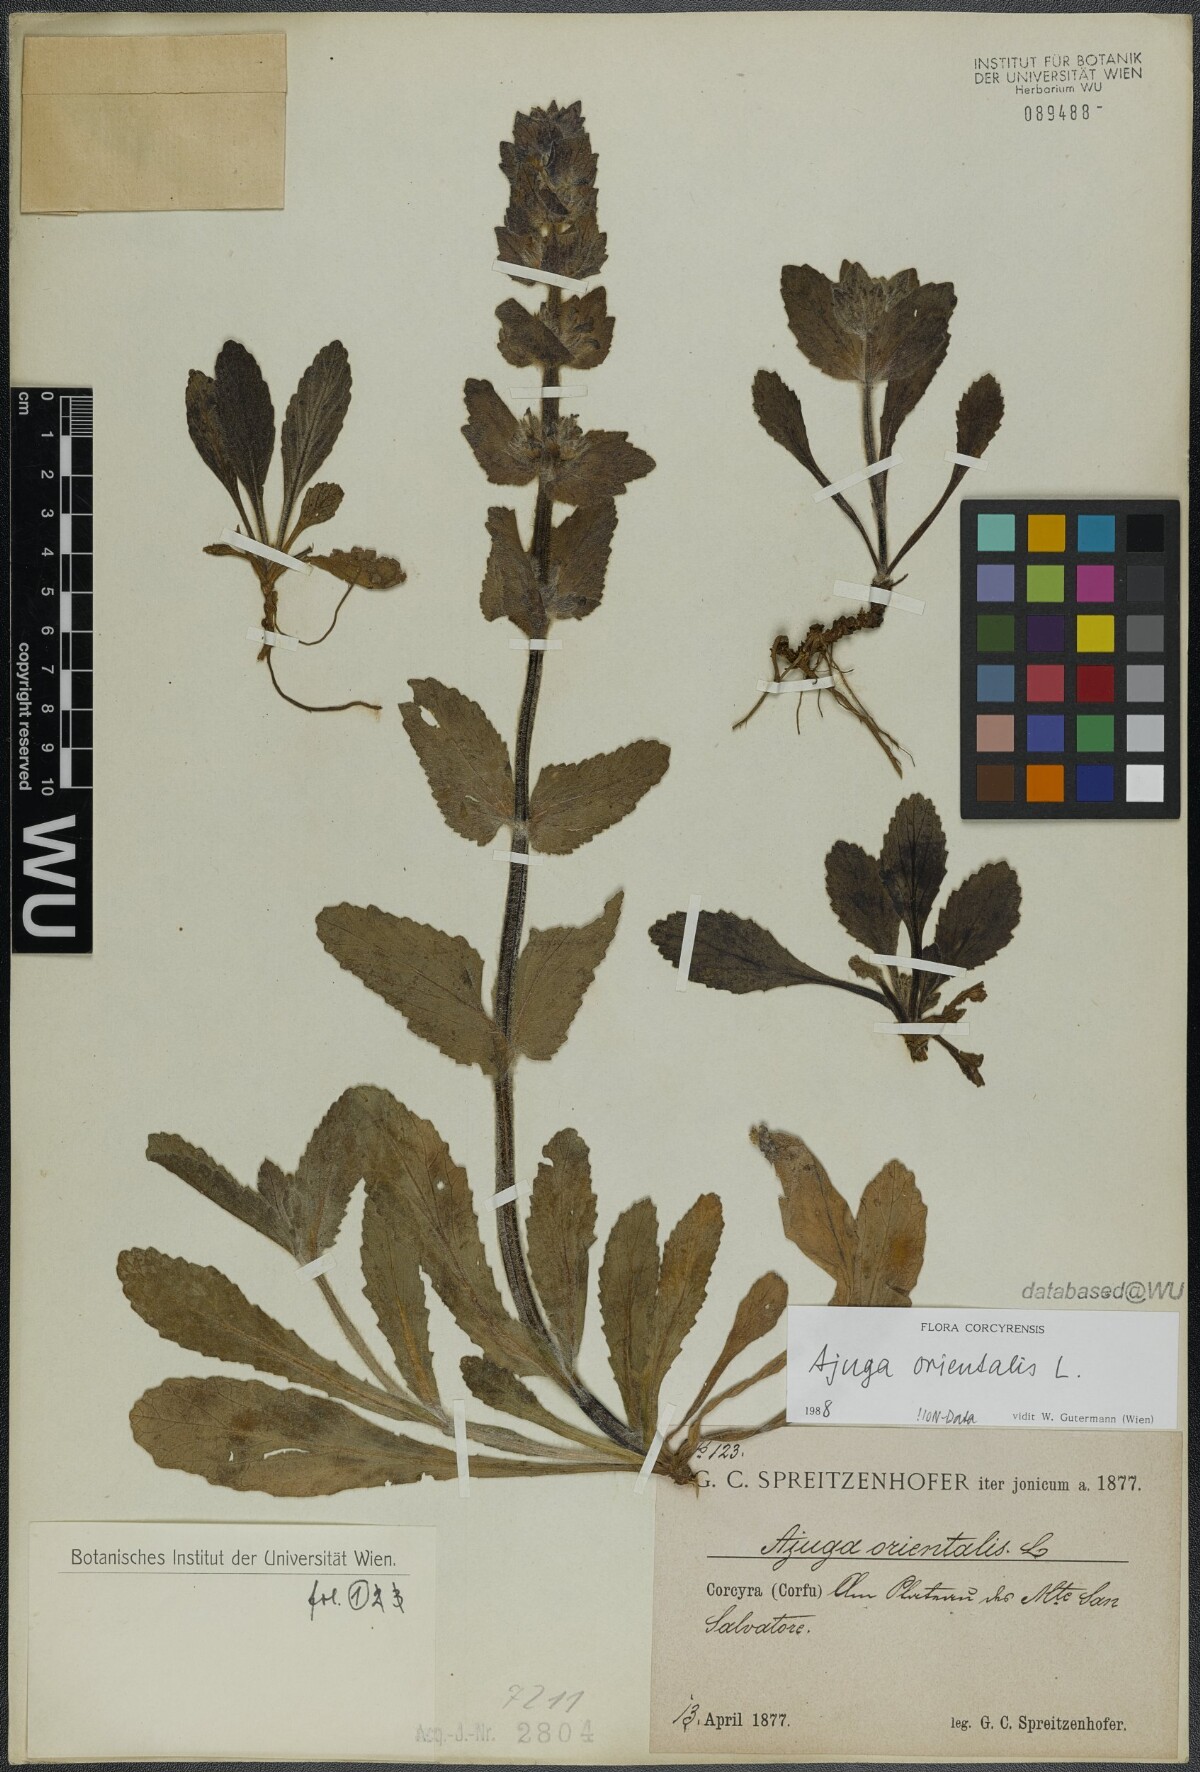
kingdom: Plantae
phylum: Tracheophyta
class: Magnoliopsida
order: Lamiales
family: Lamiaceae
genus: Ajuga
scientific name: Ajuga orientalis
